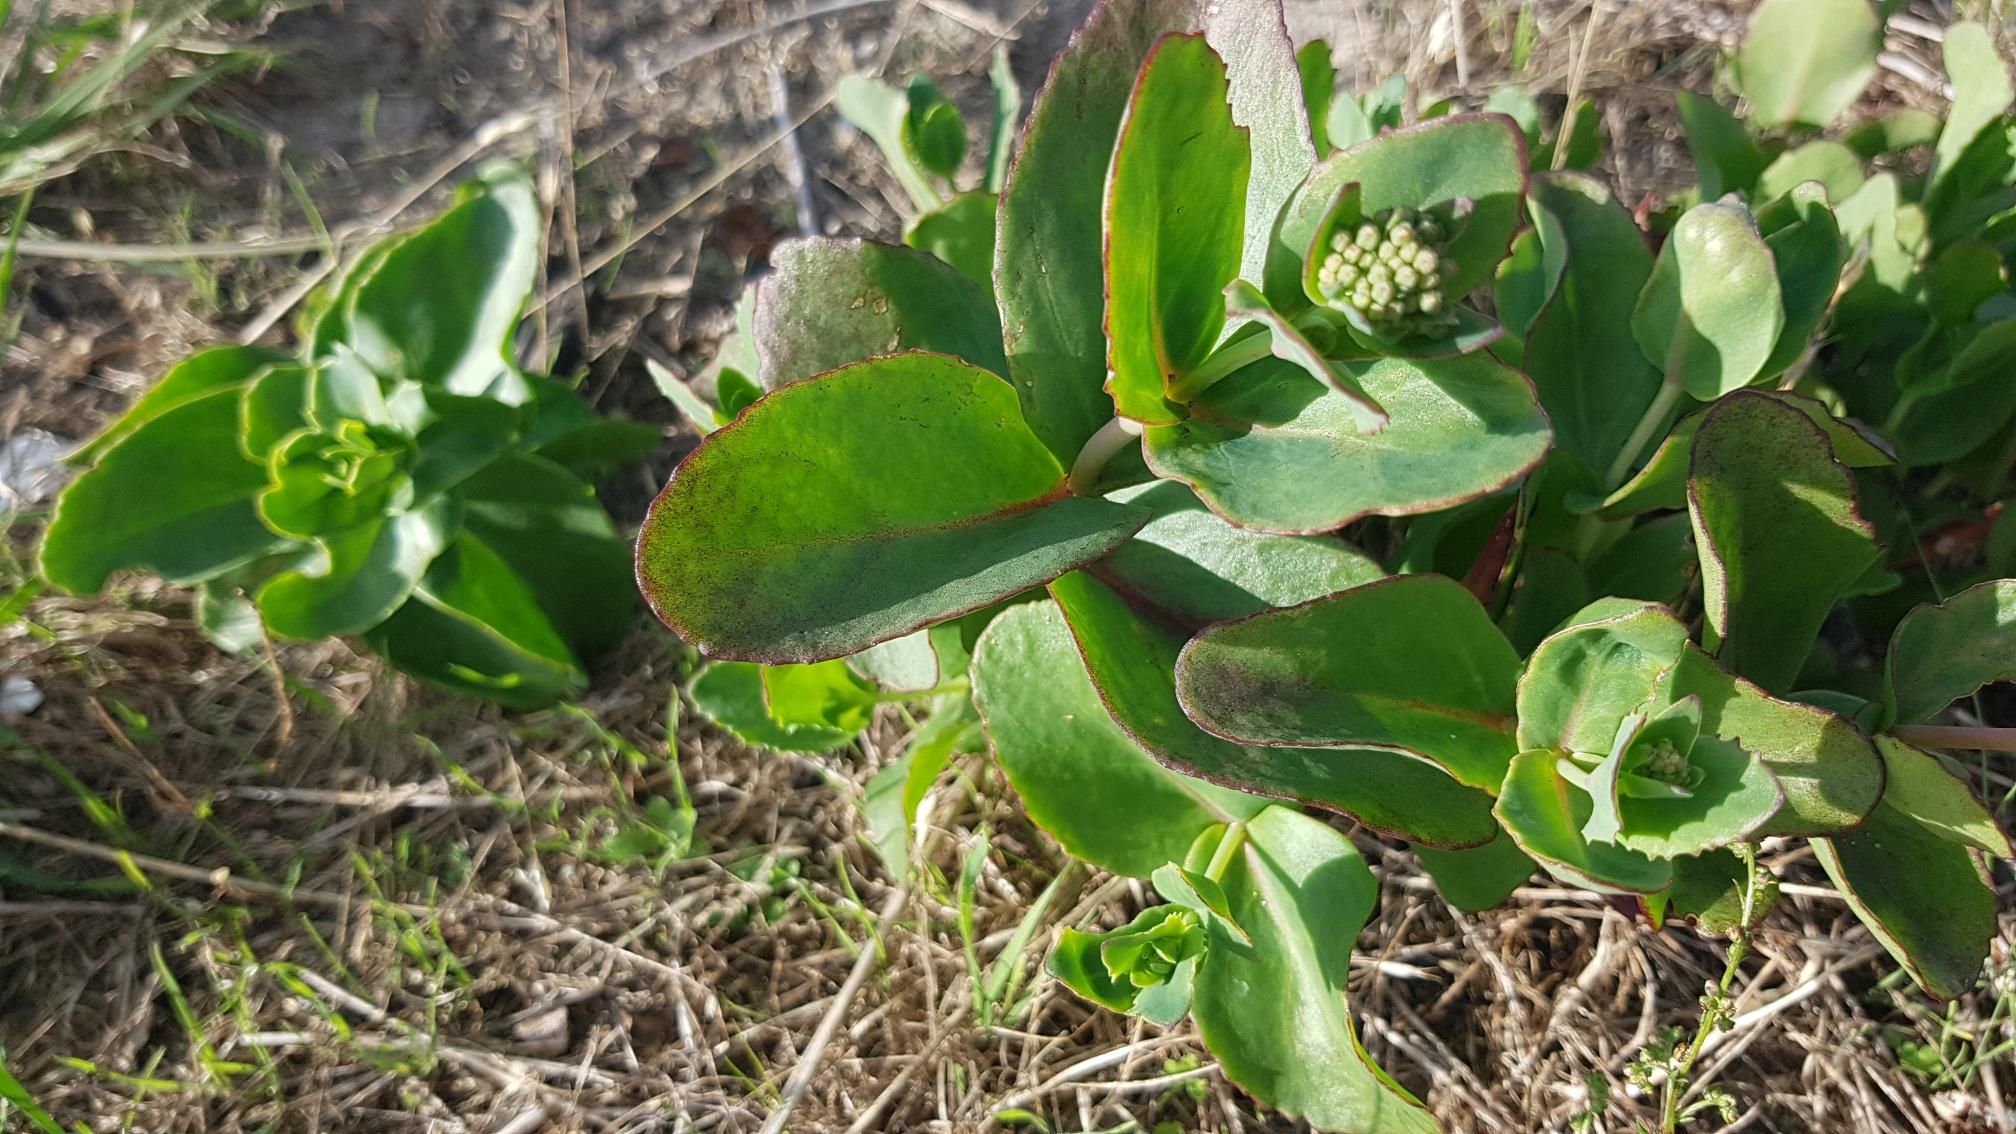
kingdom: Plantae
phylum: Tracheophyta
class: Magnoliopsida
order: Saxifragales
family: Crassulaceae
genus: Hylotelephium
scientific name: Hylotelephium maximum
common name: Almindelig sankthansurt
